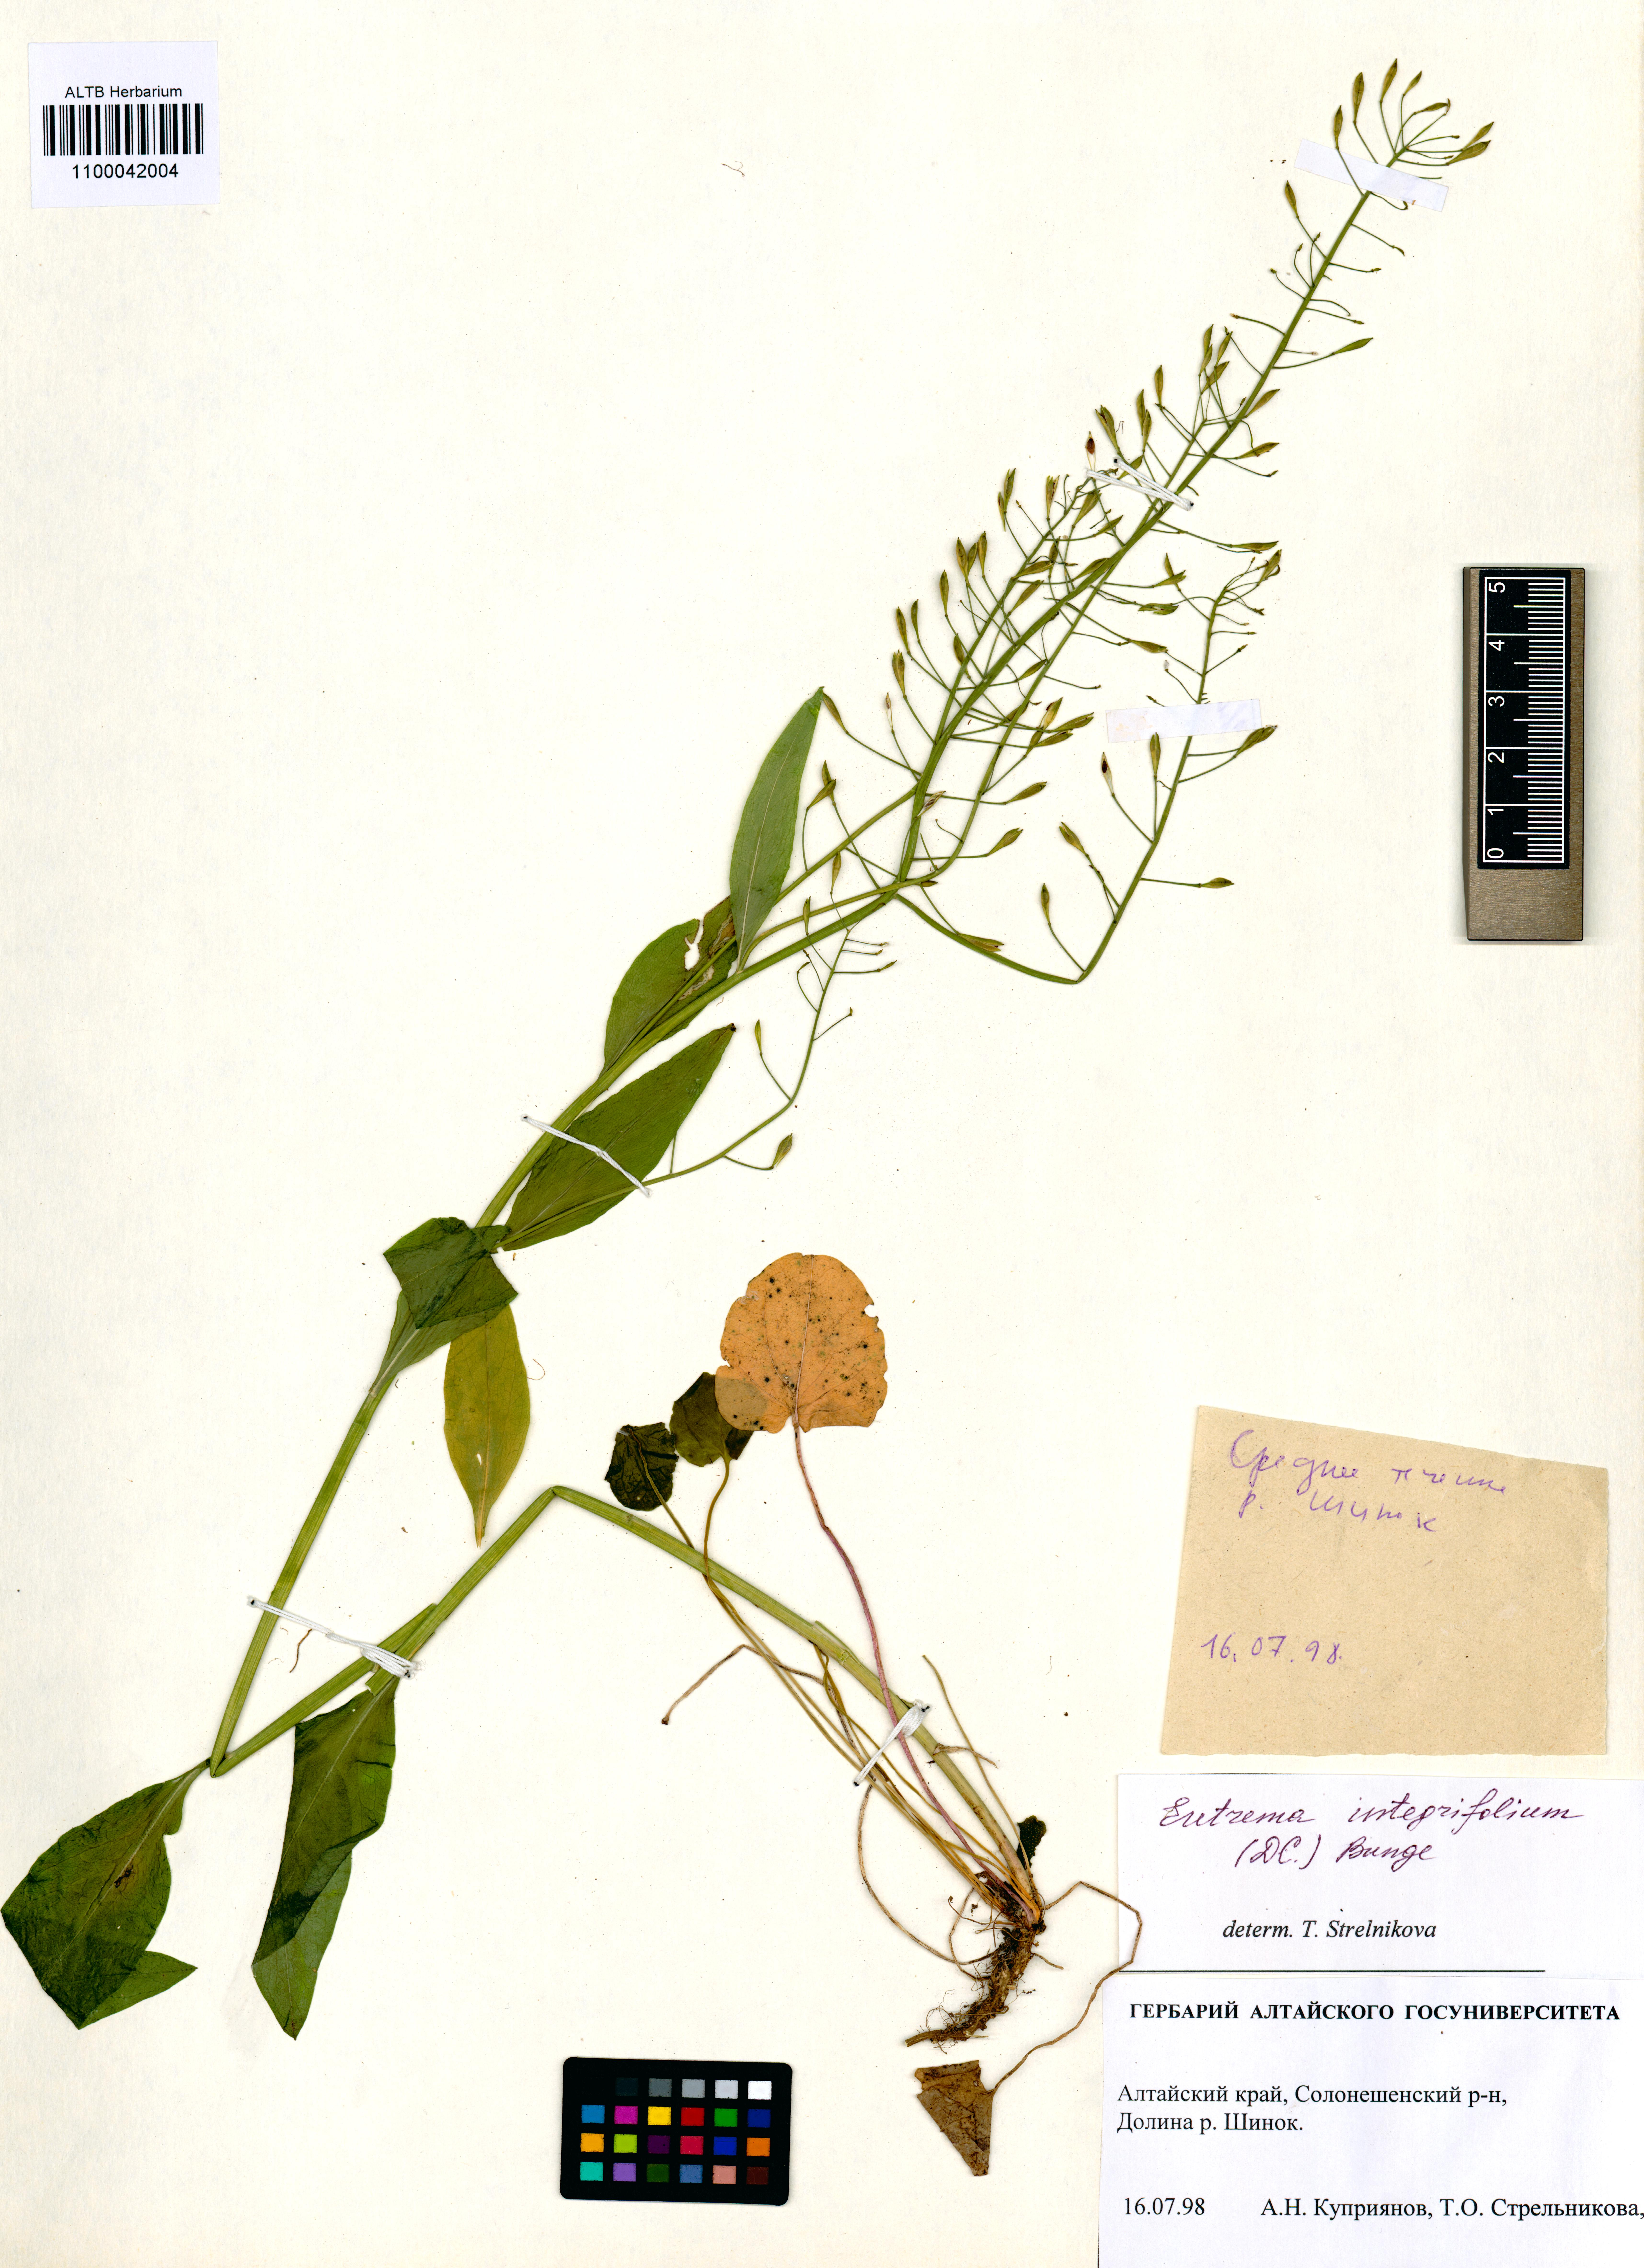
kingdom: Plantae
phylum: Tracheophyta
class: Magnoliopsida
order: Brassicales
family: Brassicaceae
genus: Eutrema
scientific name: Eutrema integrifolium
